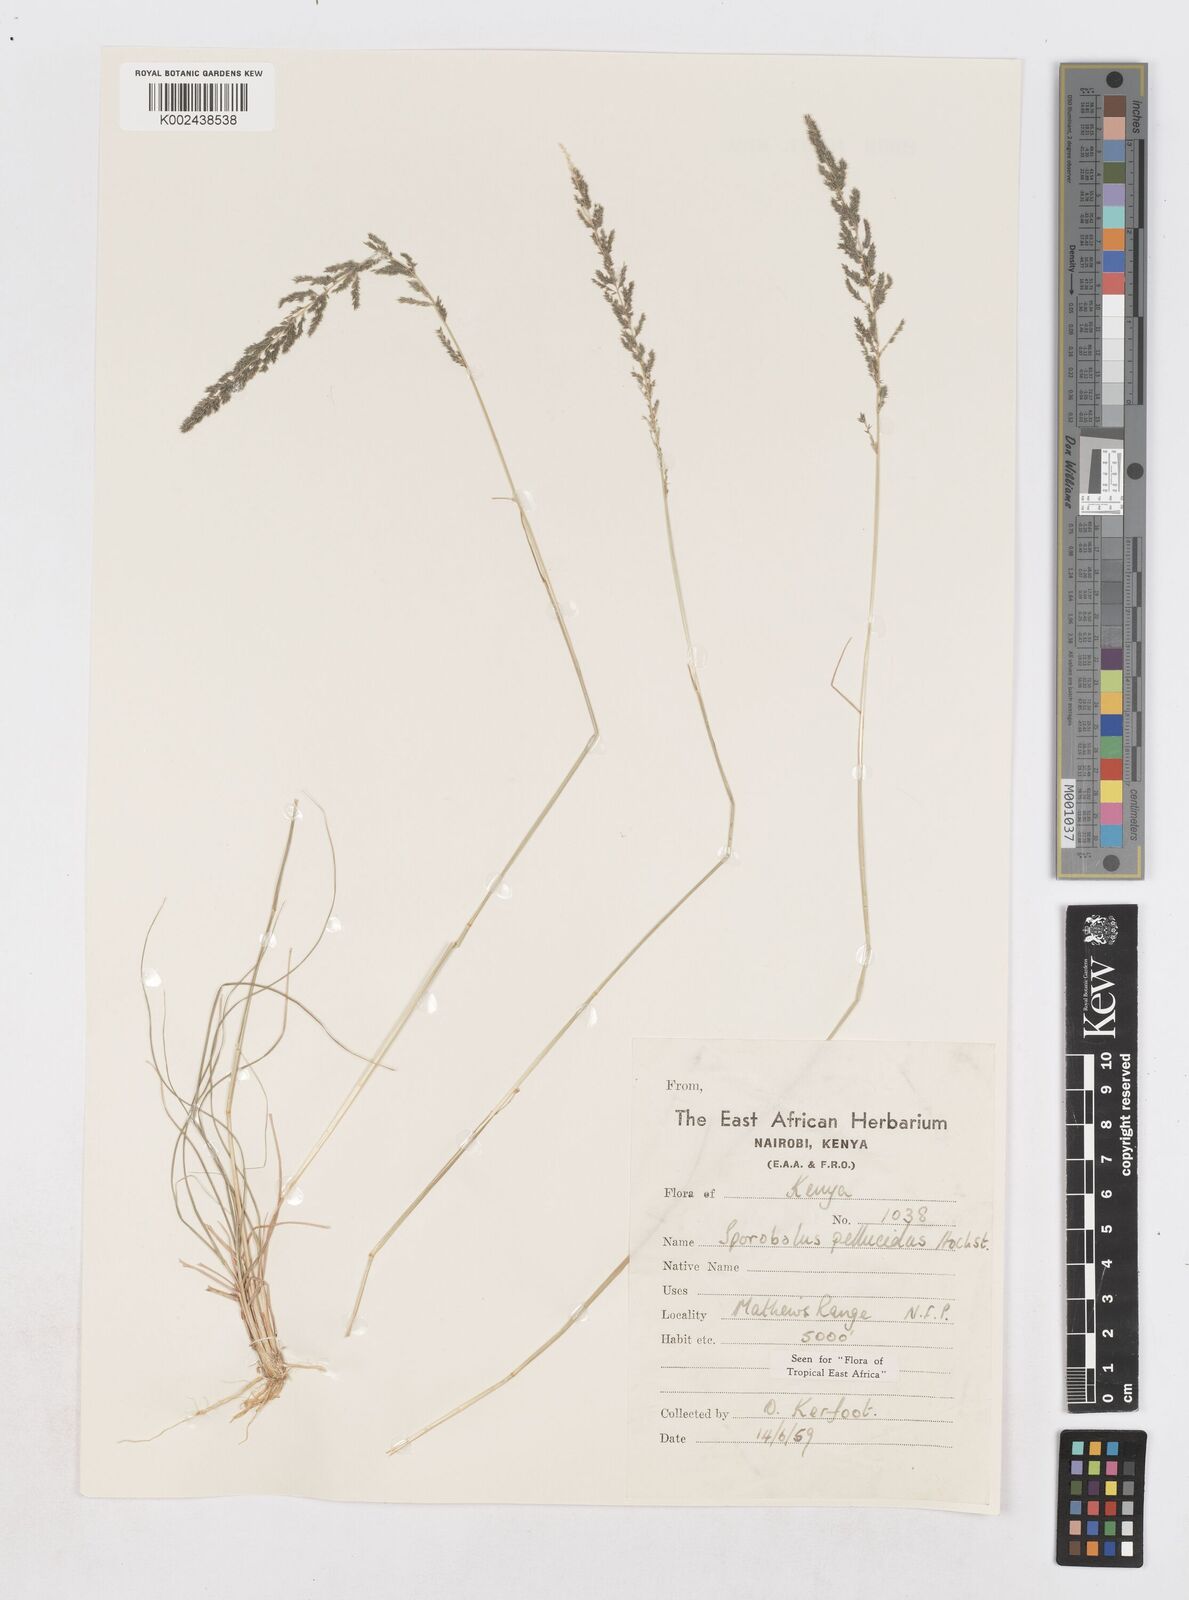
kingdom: Plantae
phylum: Tracheophyta
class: Liliopsida
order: Poales
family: Poaceae
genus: Sporobolus
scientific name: Sporobolus pellucidus
